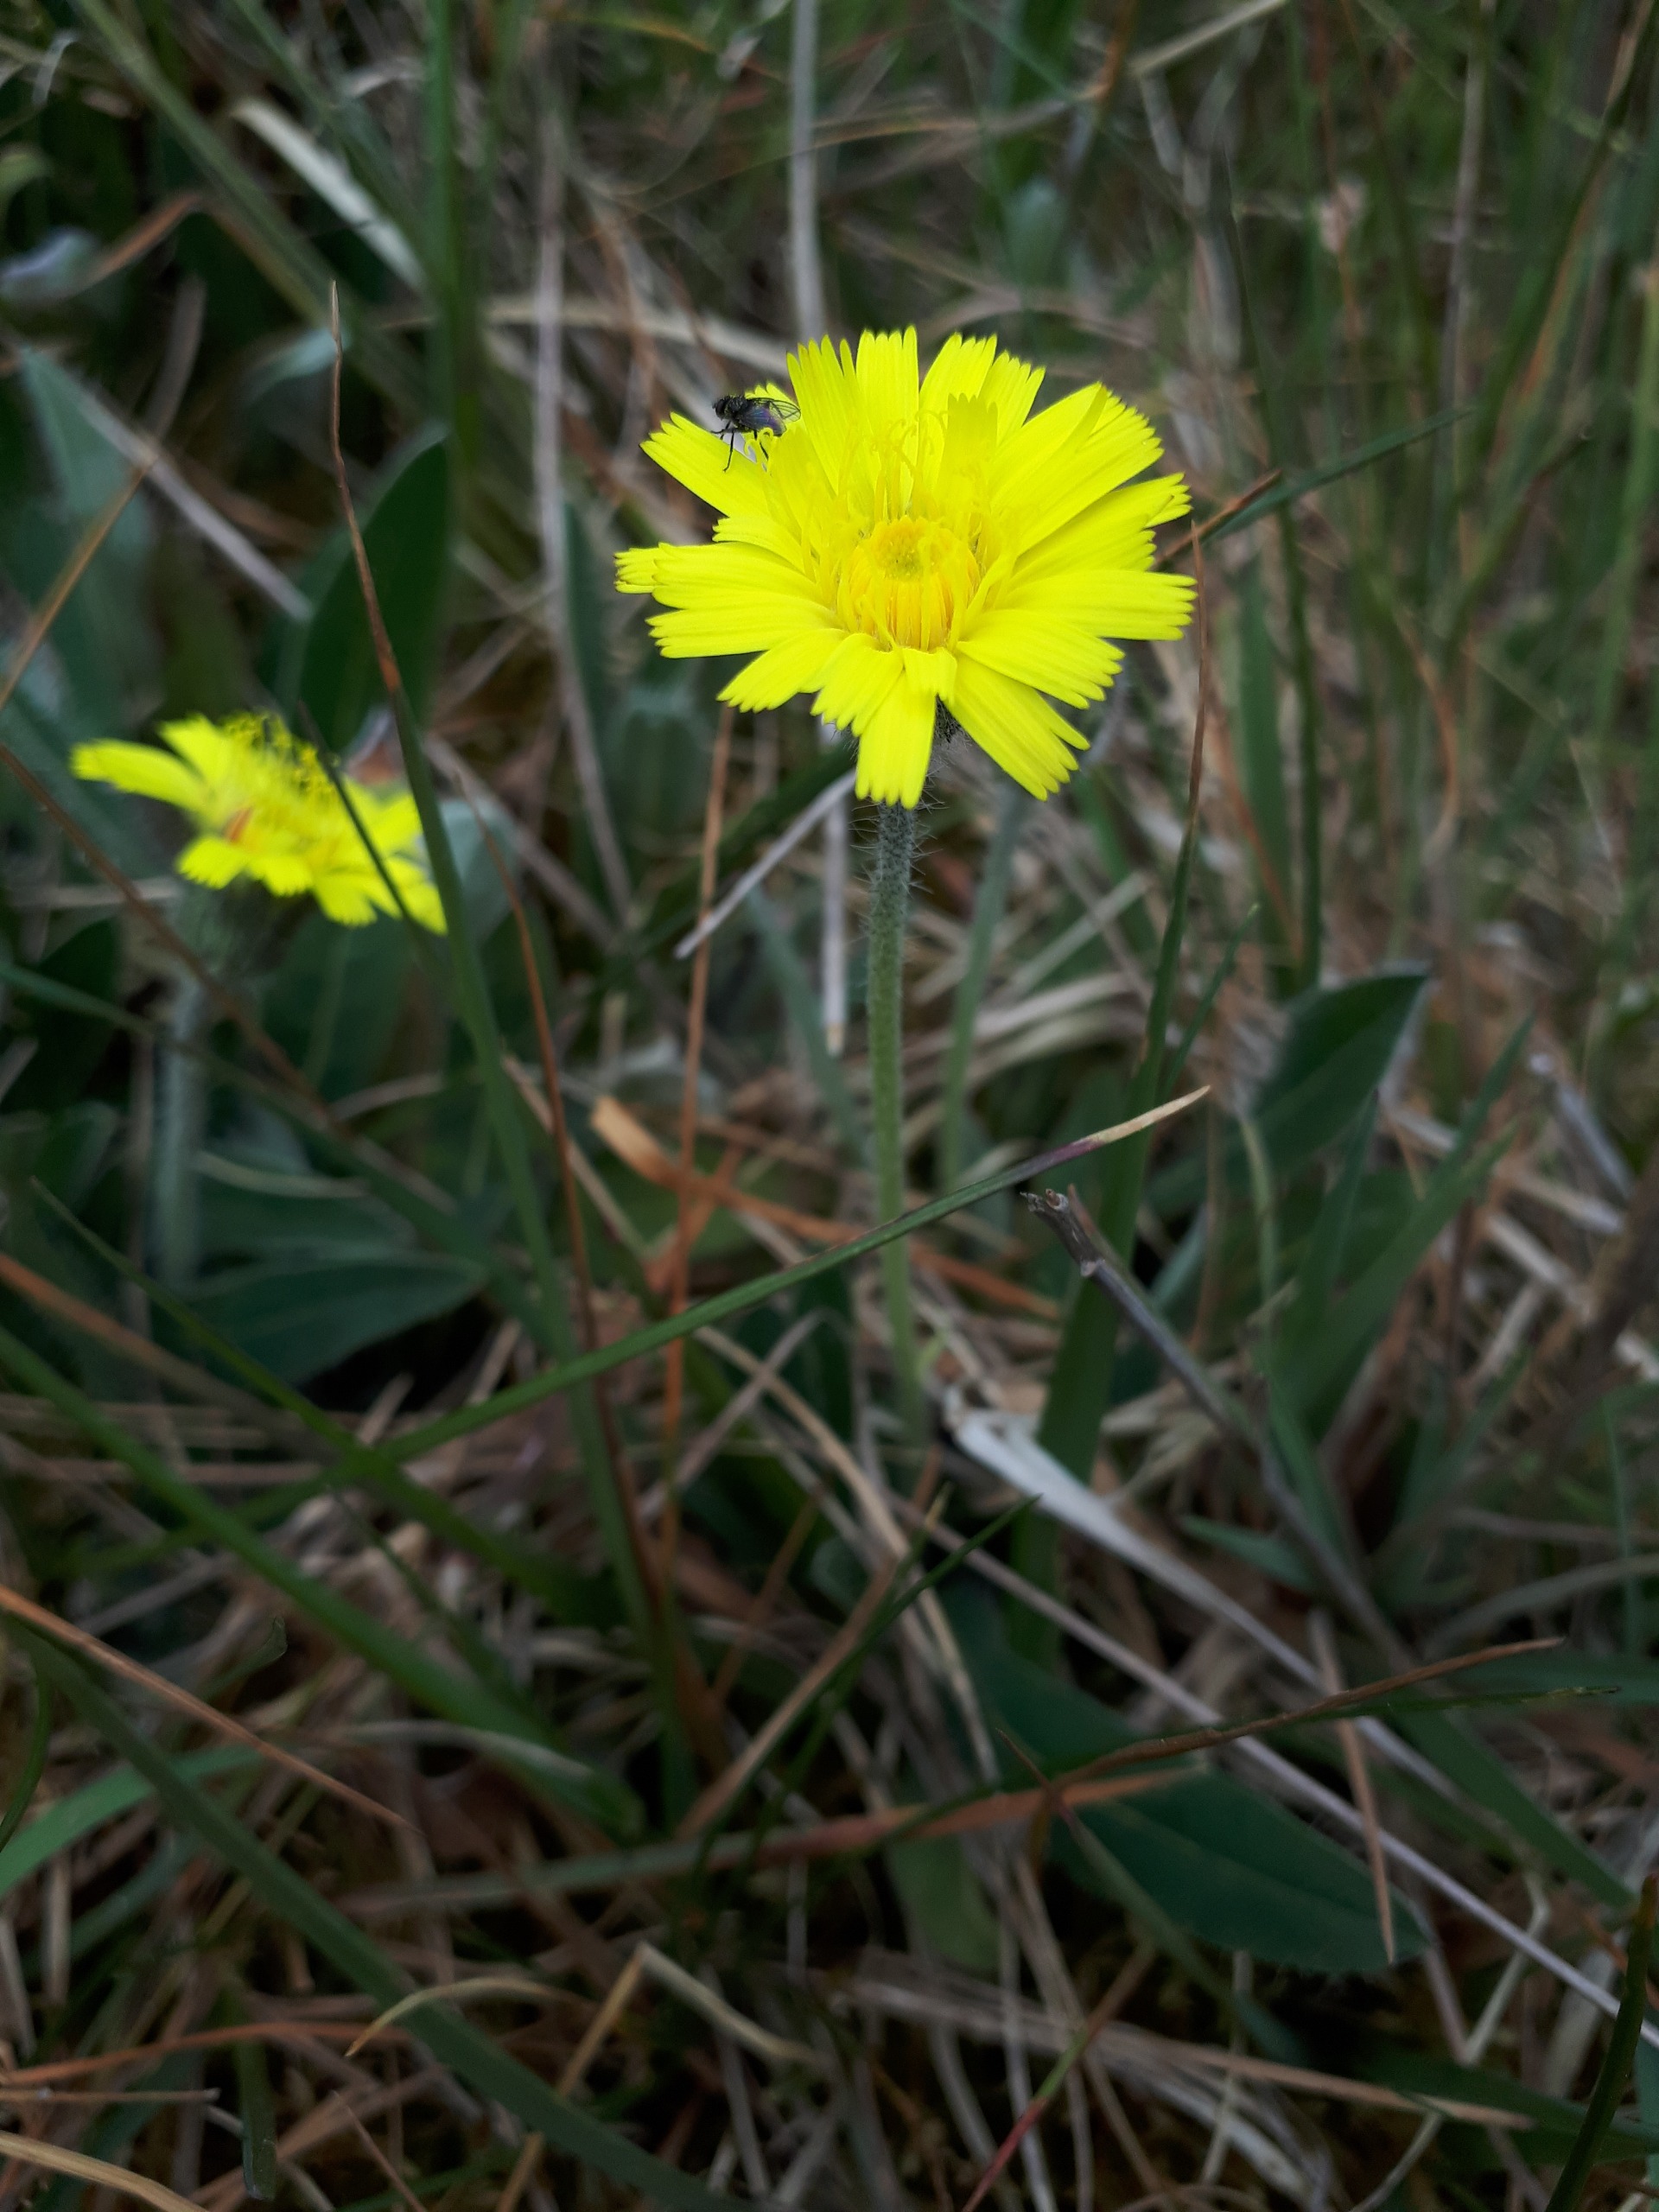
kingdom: Plantae
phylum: Tracheophyta
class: Magnoliopsida
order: Asterales
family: Asteraceae
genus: Pilosella
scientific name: Pilosella officinarum
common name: Håret høgeurt
